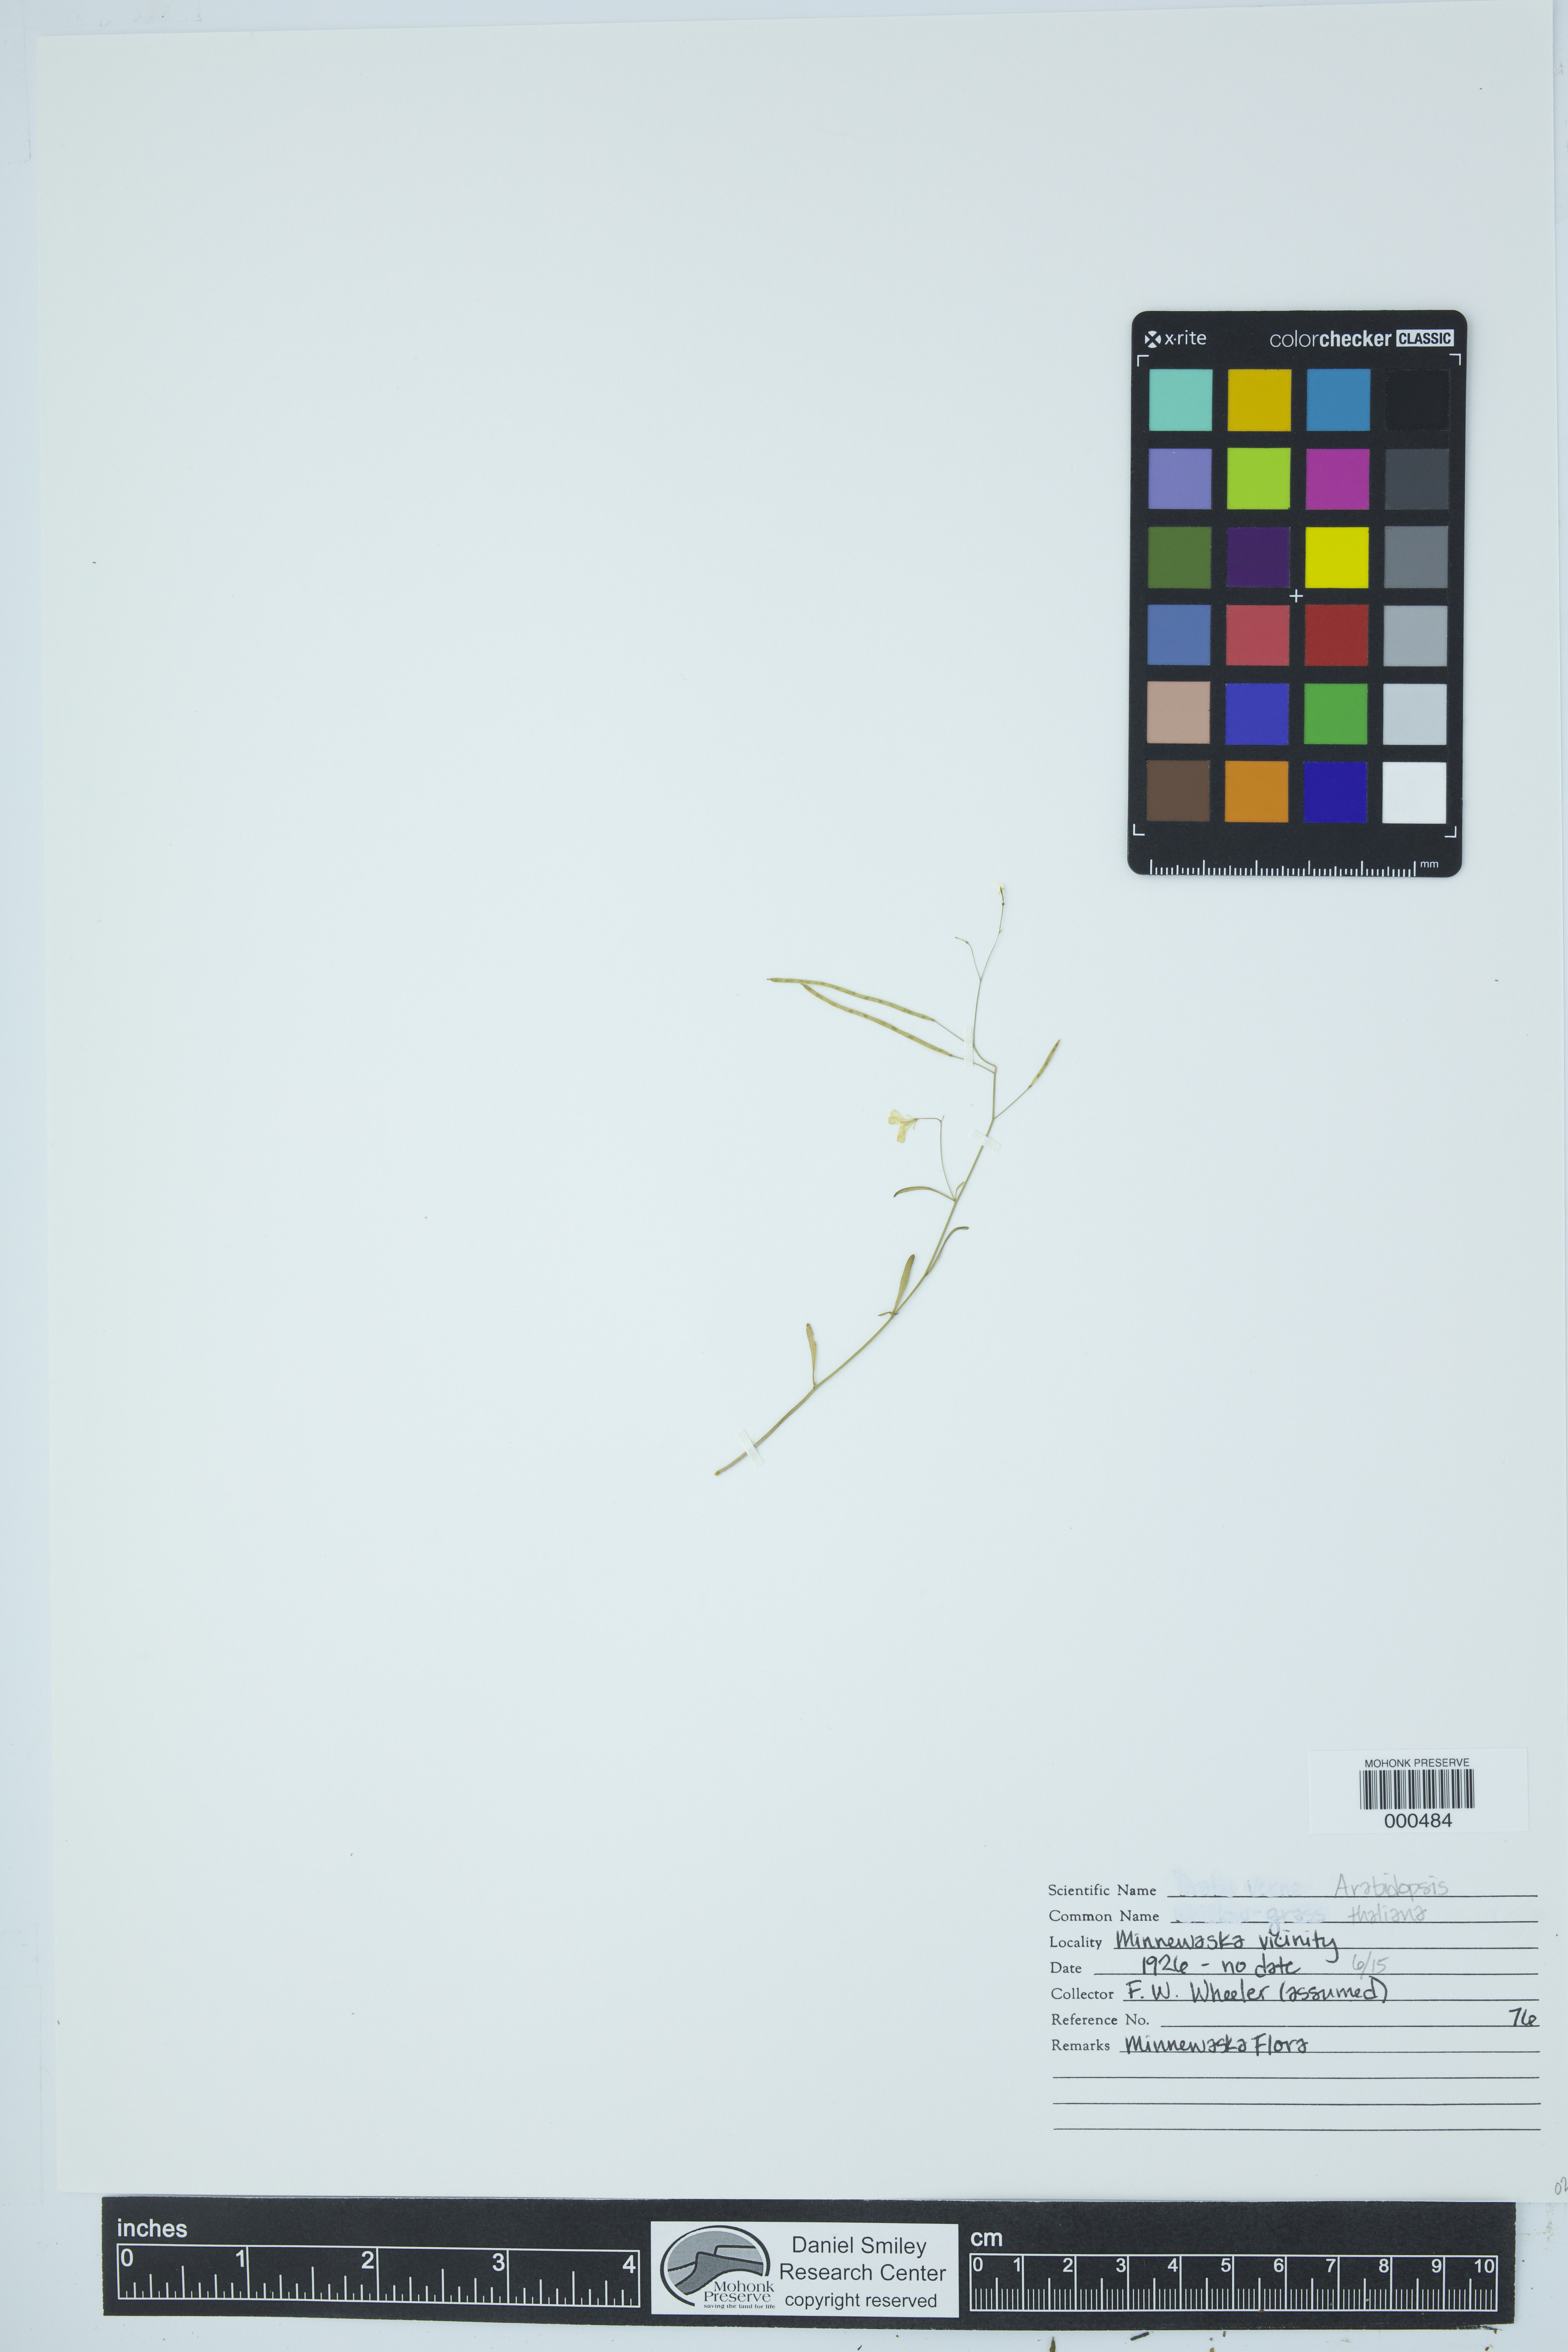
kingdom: Plantae
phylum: Tracheophyta
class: Magnoliopsida
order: Brassicales
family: Brassicaceae
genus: Arabidopsis
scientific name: Arabidopsis thaliana
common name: Thale cress
